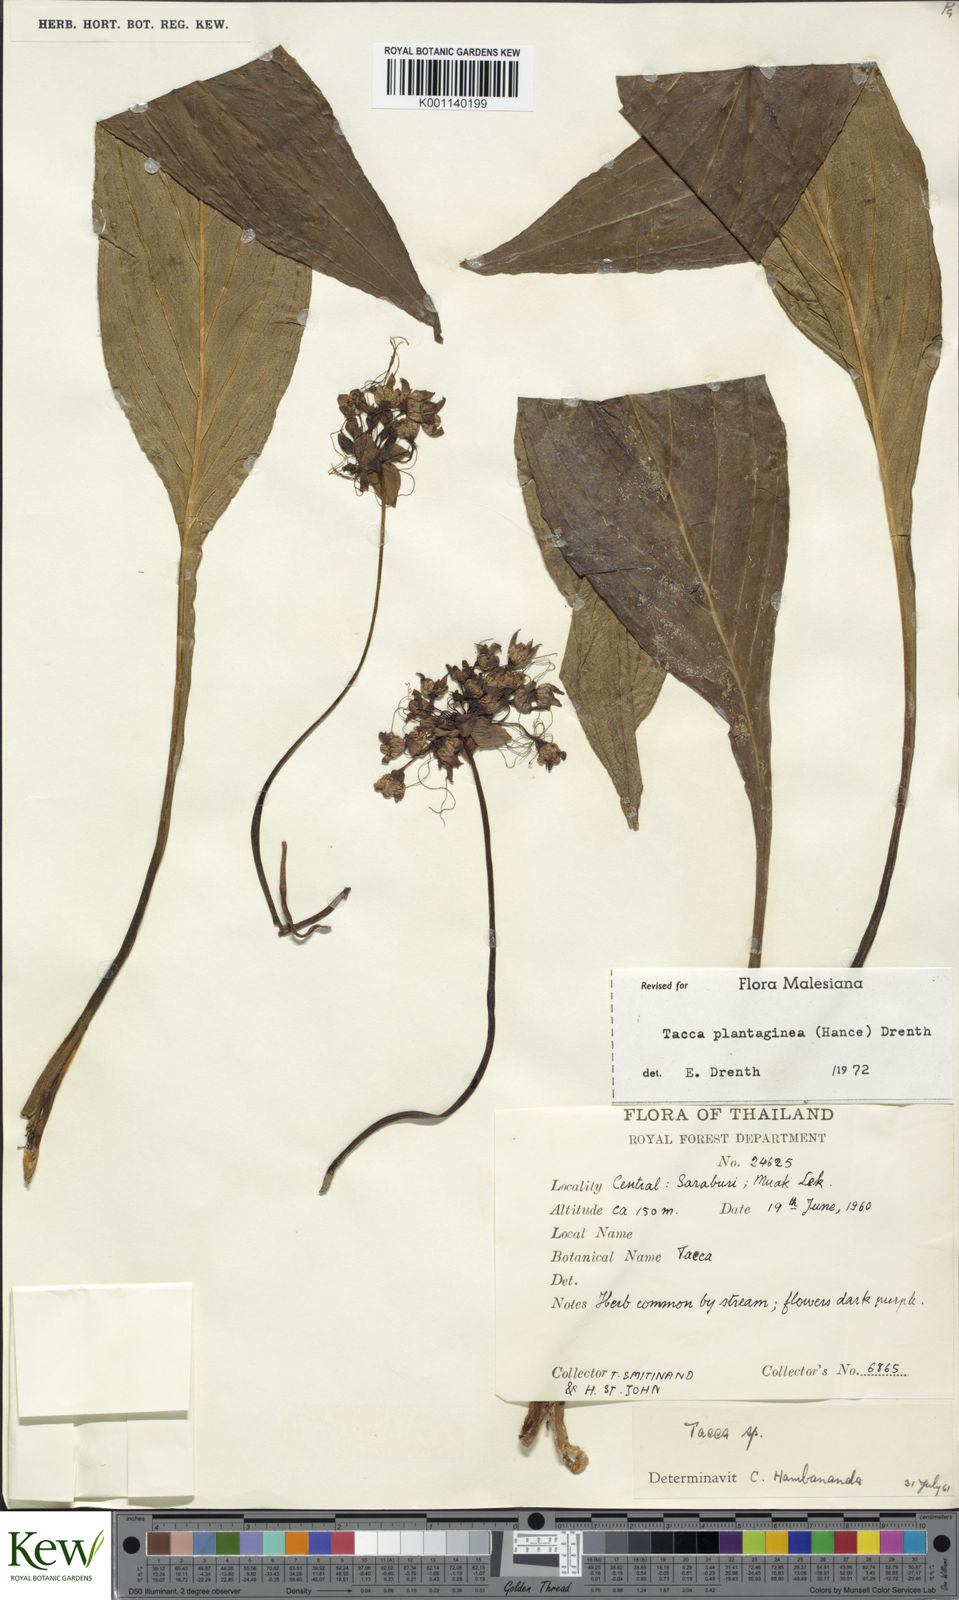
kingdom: Plantae
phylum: Tracheophyta
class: Liliopsida
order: Dioscoreales
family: Dioscoreaceae
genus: Tacca
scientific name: Tacca plantaginea
